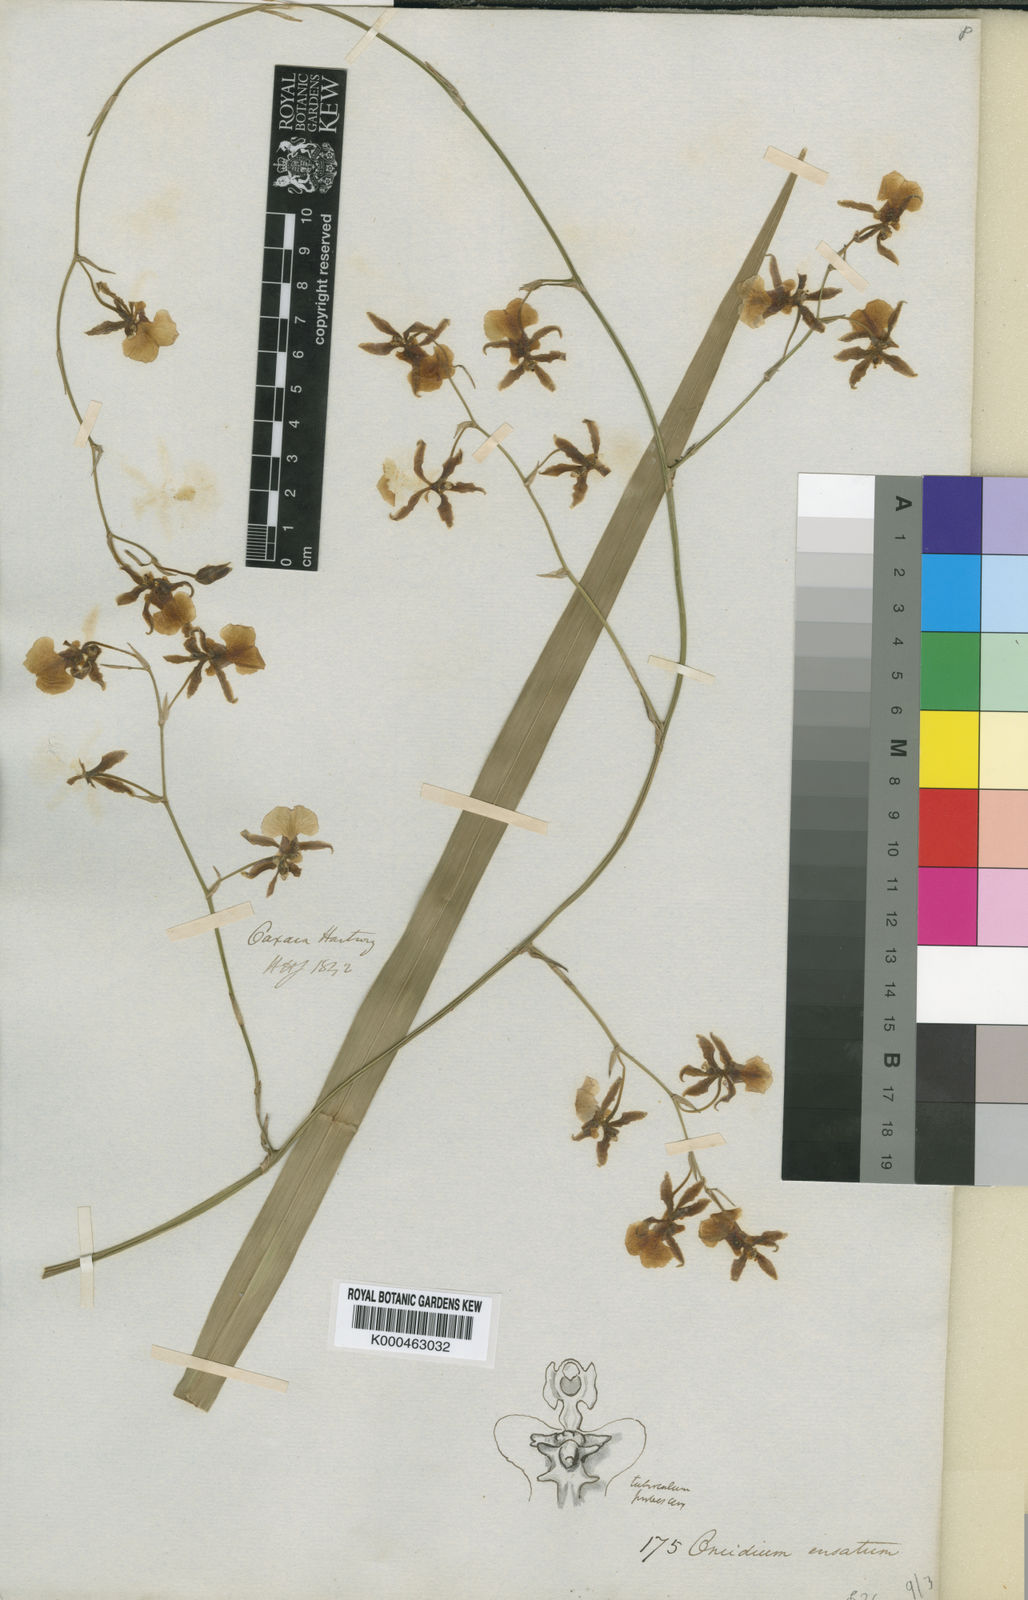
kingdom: Plantae
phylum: Tracheophyta
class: Liliopsida
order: Asparagales
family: Orchidaceae
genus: Oncidium
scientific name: Oncidium ensatum
